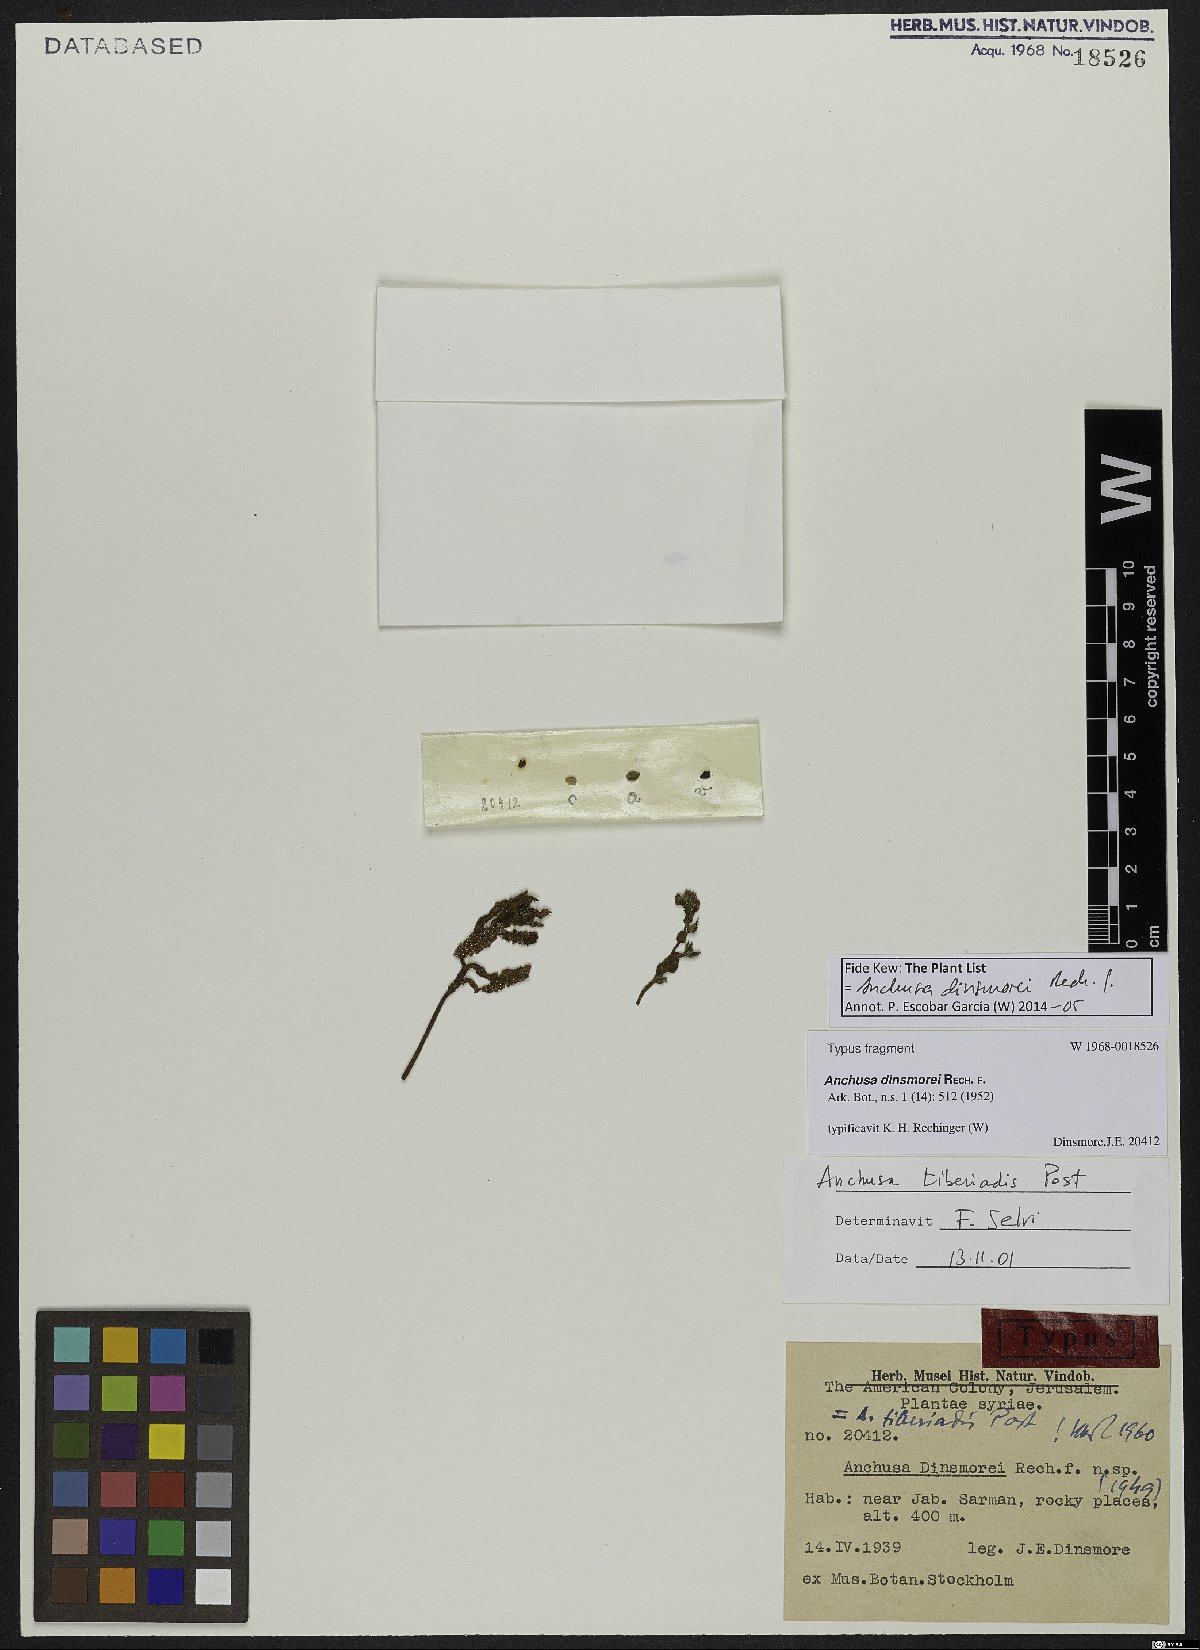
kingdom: Plantae
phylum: Tracheophyta
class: Magnoliopsida
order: Boraginales
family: Boraginaceae
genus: Anchusa
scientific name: Anchusa dinsmorei
